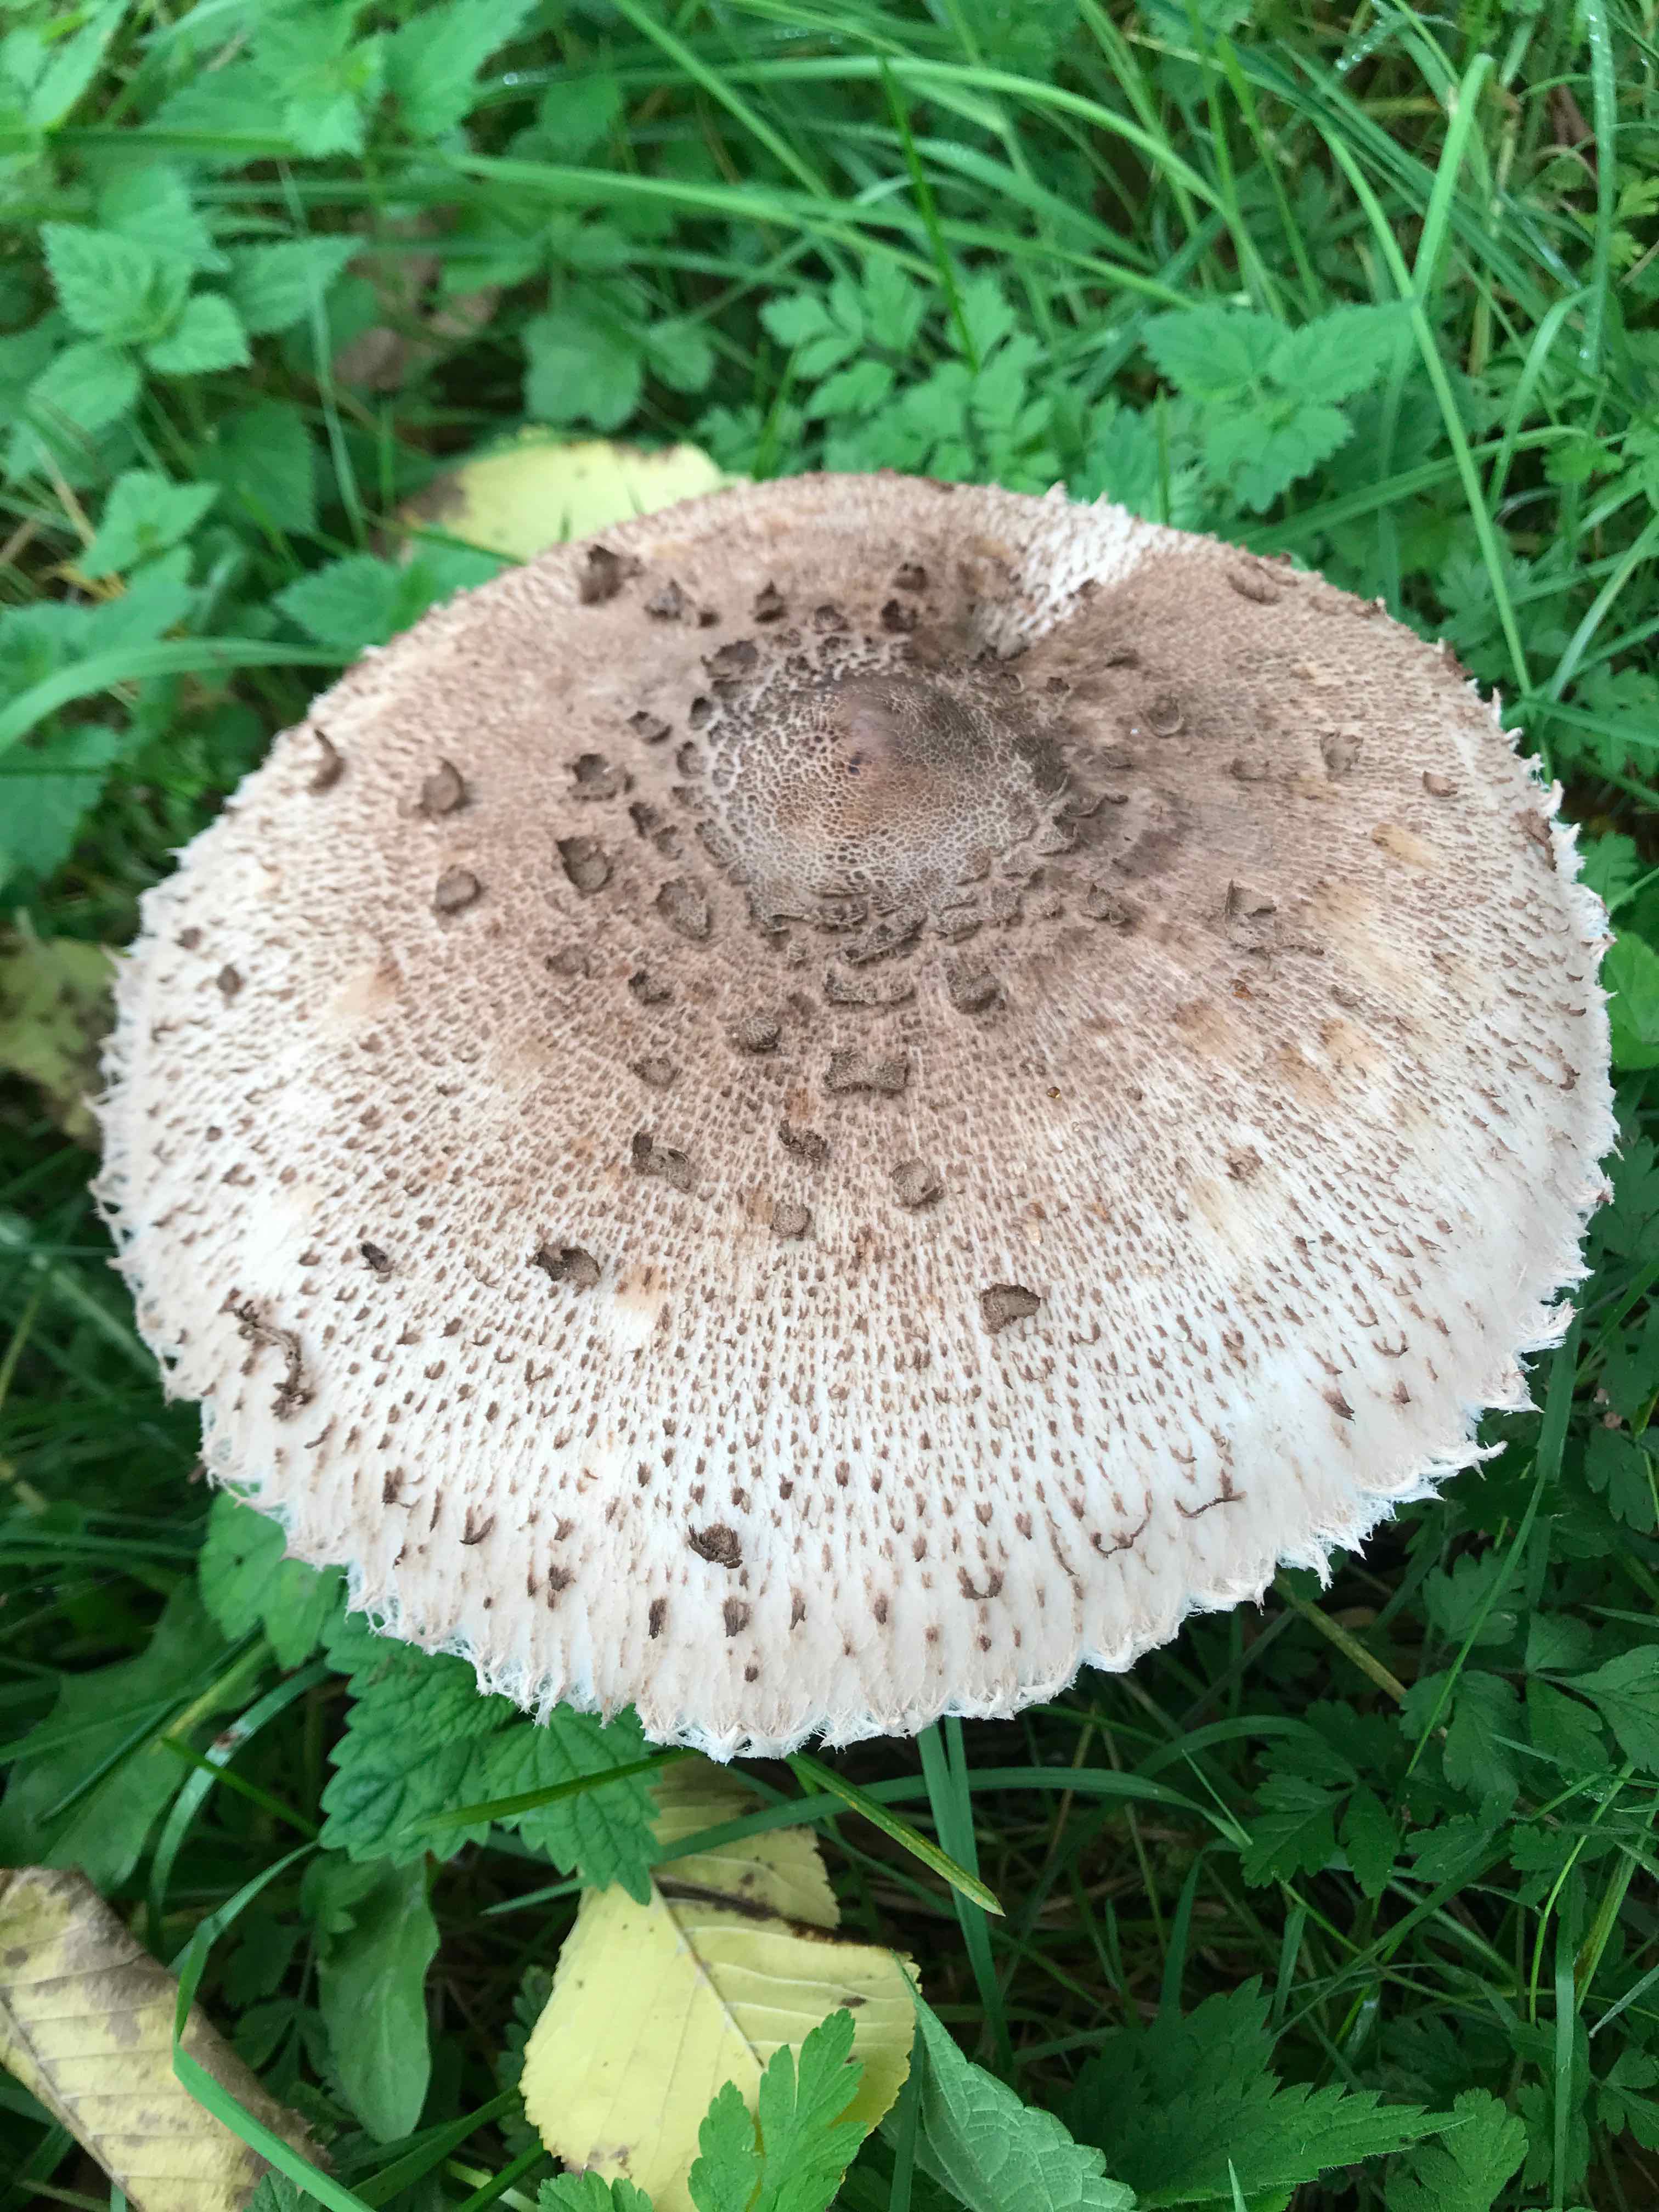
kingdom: Fungi
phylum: Basidiomycota
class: Agaricomycetes
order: Agaricales
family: Agaricaceae
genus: Macrolepiota
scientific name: Macrolepiota fuliginosa
